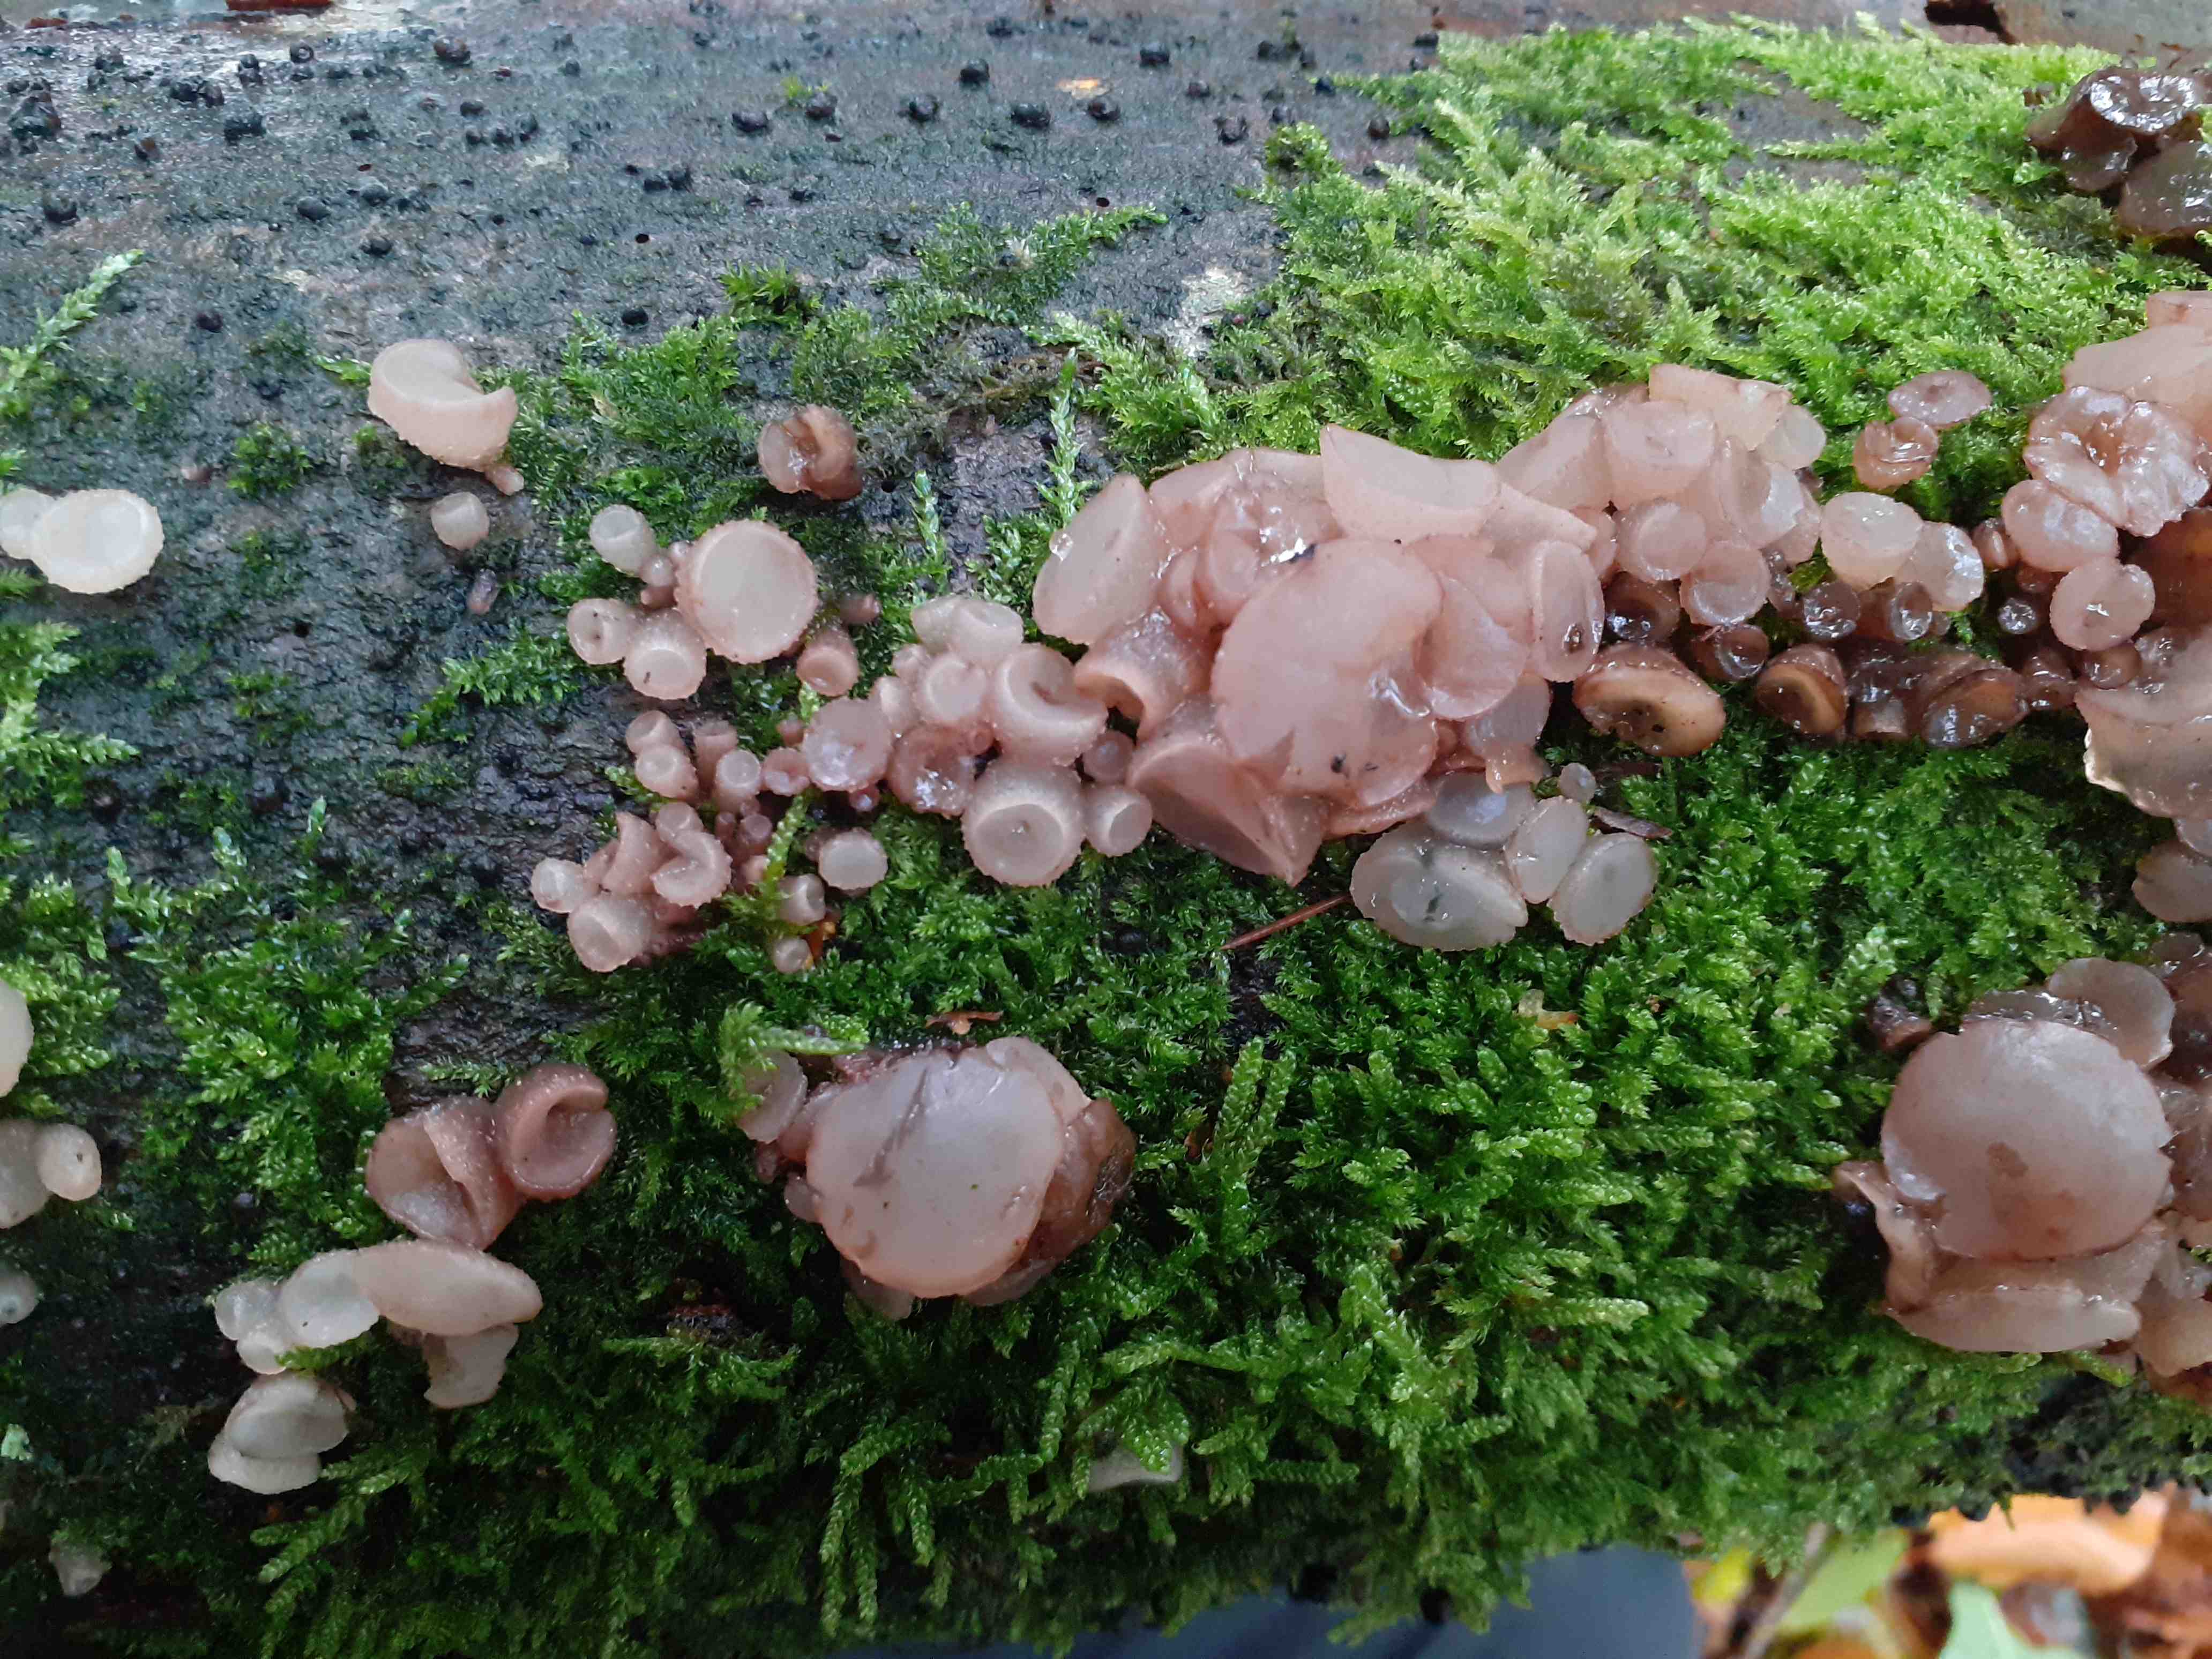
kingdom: Fungi
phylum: Ascomycota
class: Leotiomycetes
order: Helotiales
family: Gelatinodiscaceae
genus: Neobulgaria
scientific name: Neobulgaria pura
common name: bleg bævreskive
